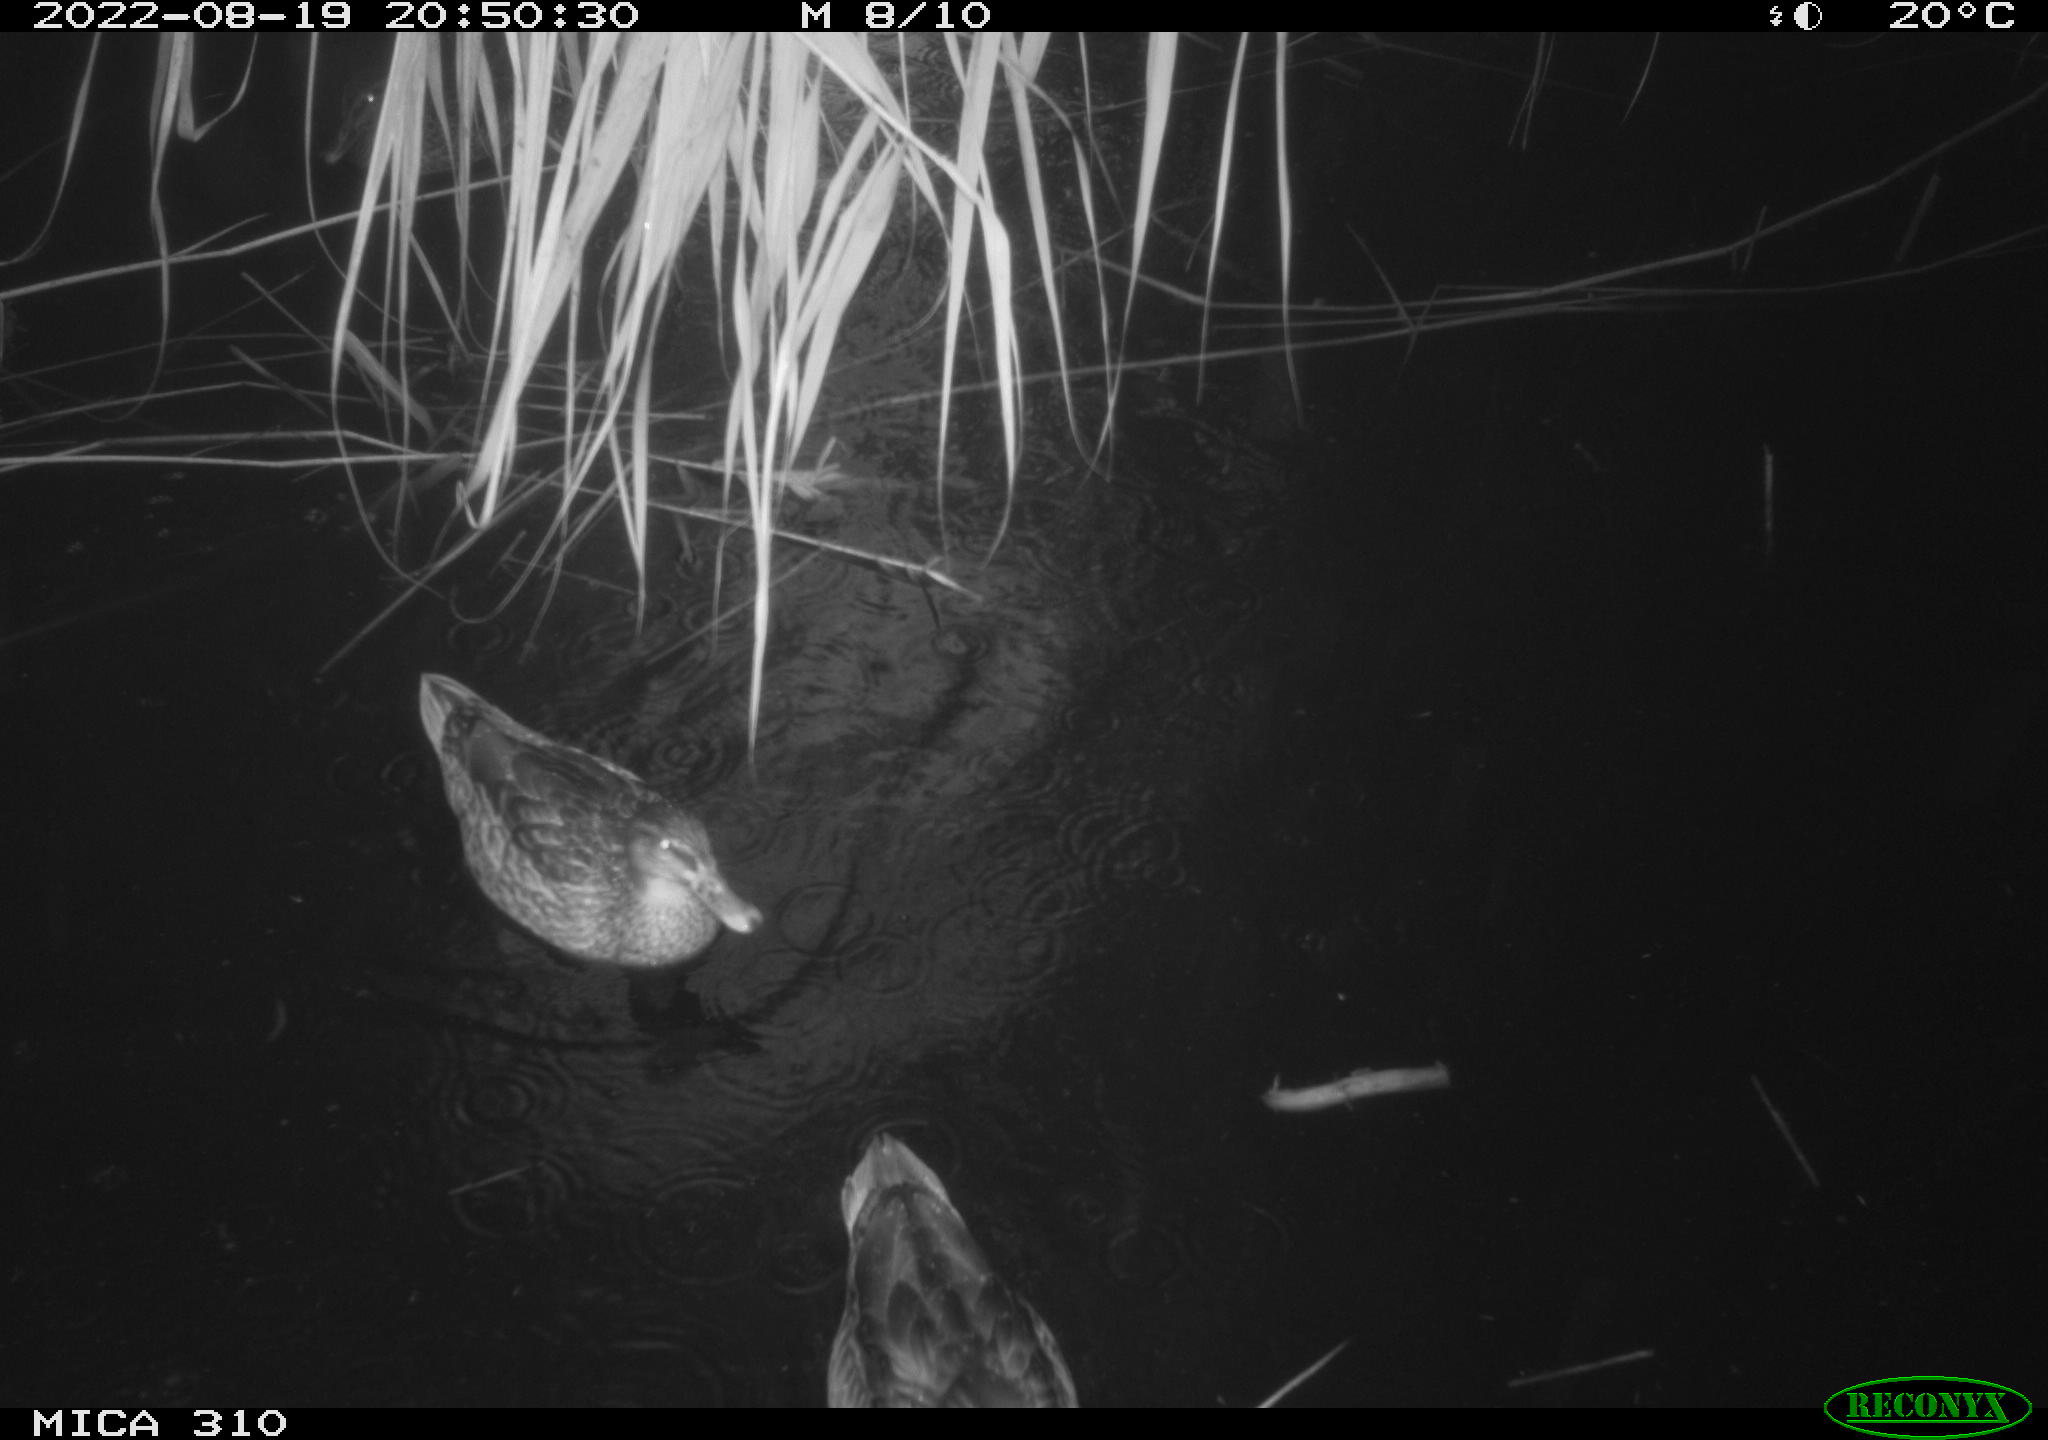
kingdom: Animalia
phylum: Chordata
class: Aves
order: Anseriformes
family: Anatidae
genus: Mareca
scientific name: Mareca strepera
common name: Gadwall
